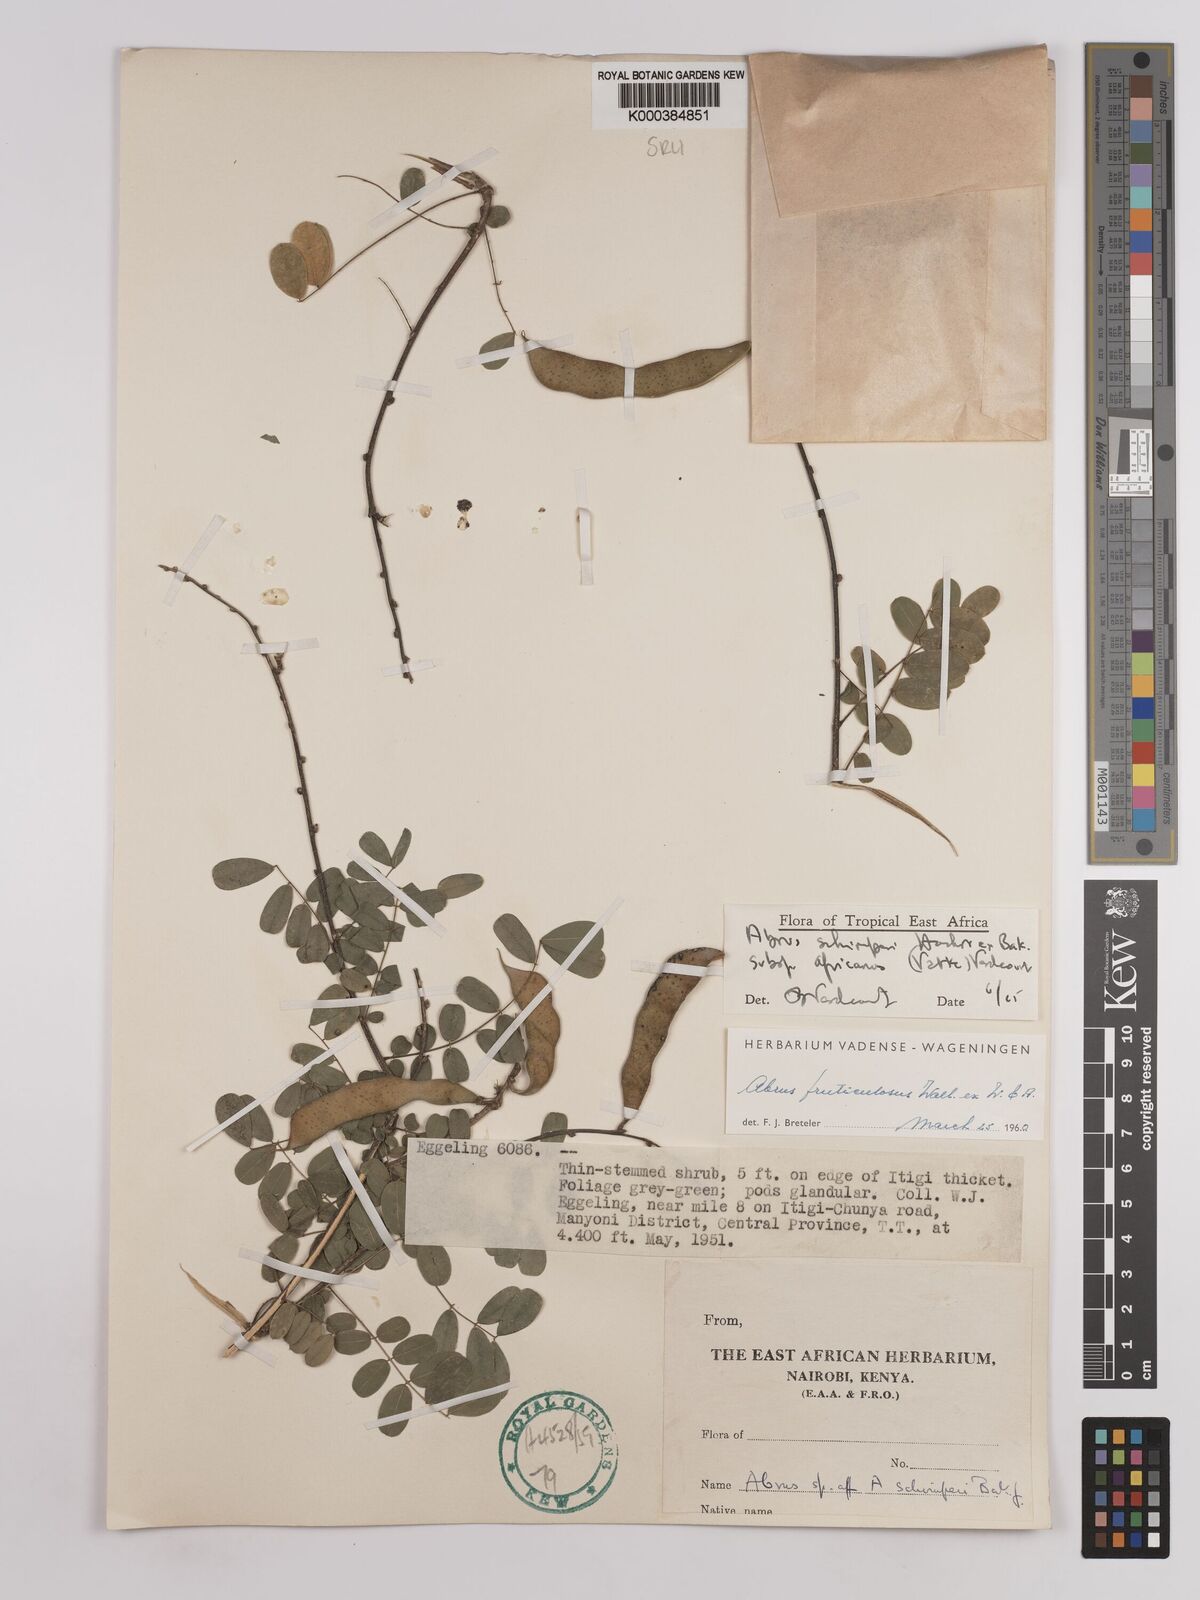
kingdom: Plantae
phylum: Tracheophyta
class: Magnoliopsida
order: Fabales
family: Fabaceae
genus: Abrus
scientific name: Abrus fruticulosus
